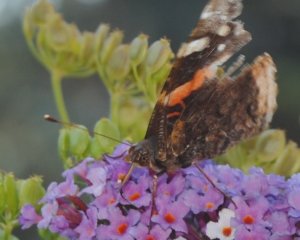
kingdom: Animalia
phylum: Arthropoda
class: Insecta
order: Lepidoptera
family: Nymphalidae
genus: Vanessa
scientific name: Vanessa atalanta
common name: Red Admiral
